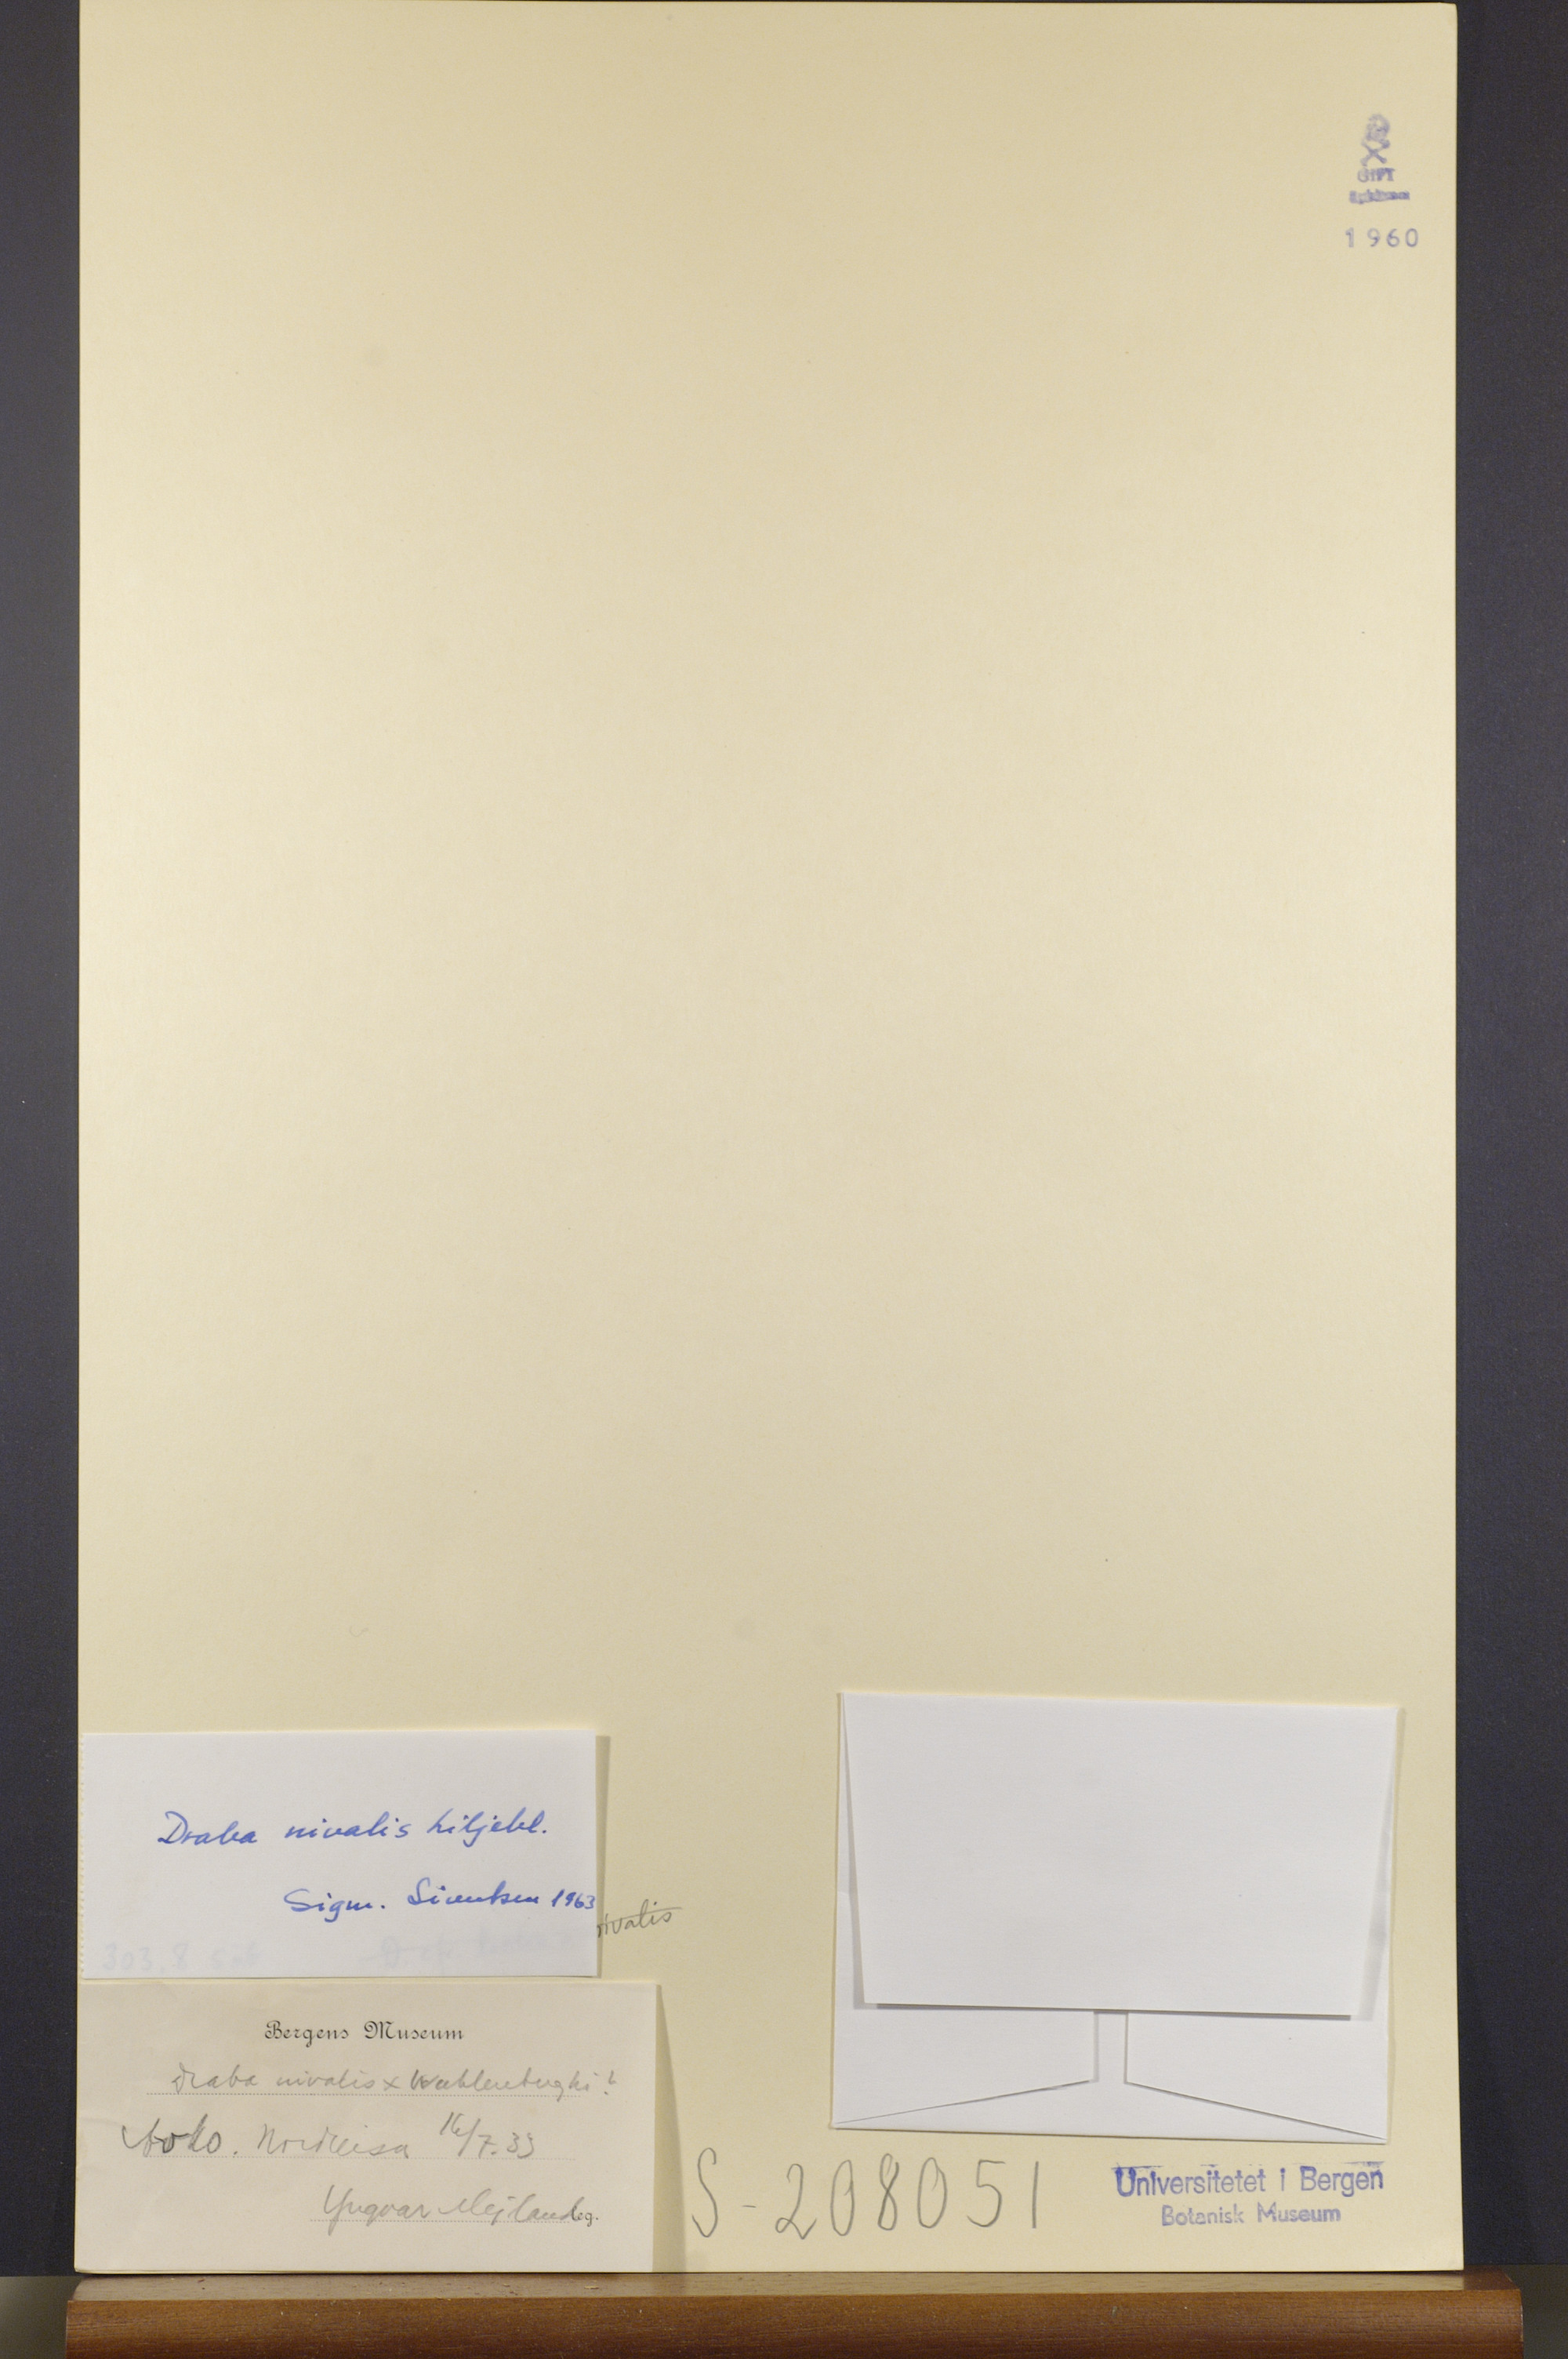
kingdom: Plantae
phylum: Tracheophyta
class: Magnoliopsida
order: Brassicales
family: Brassicaceae
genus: Draba
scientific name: Draba nivalis
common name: Snow draba
